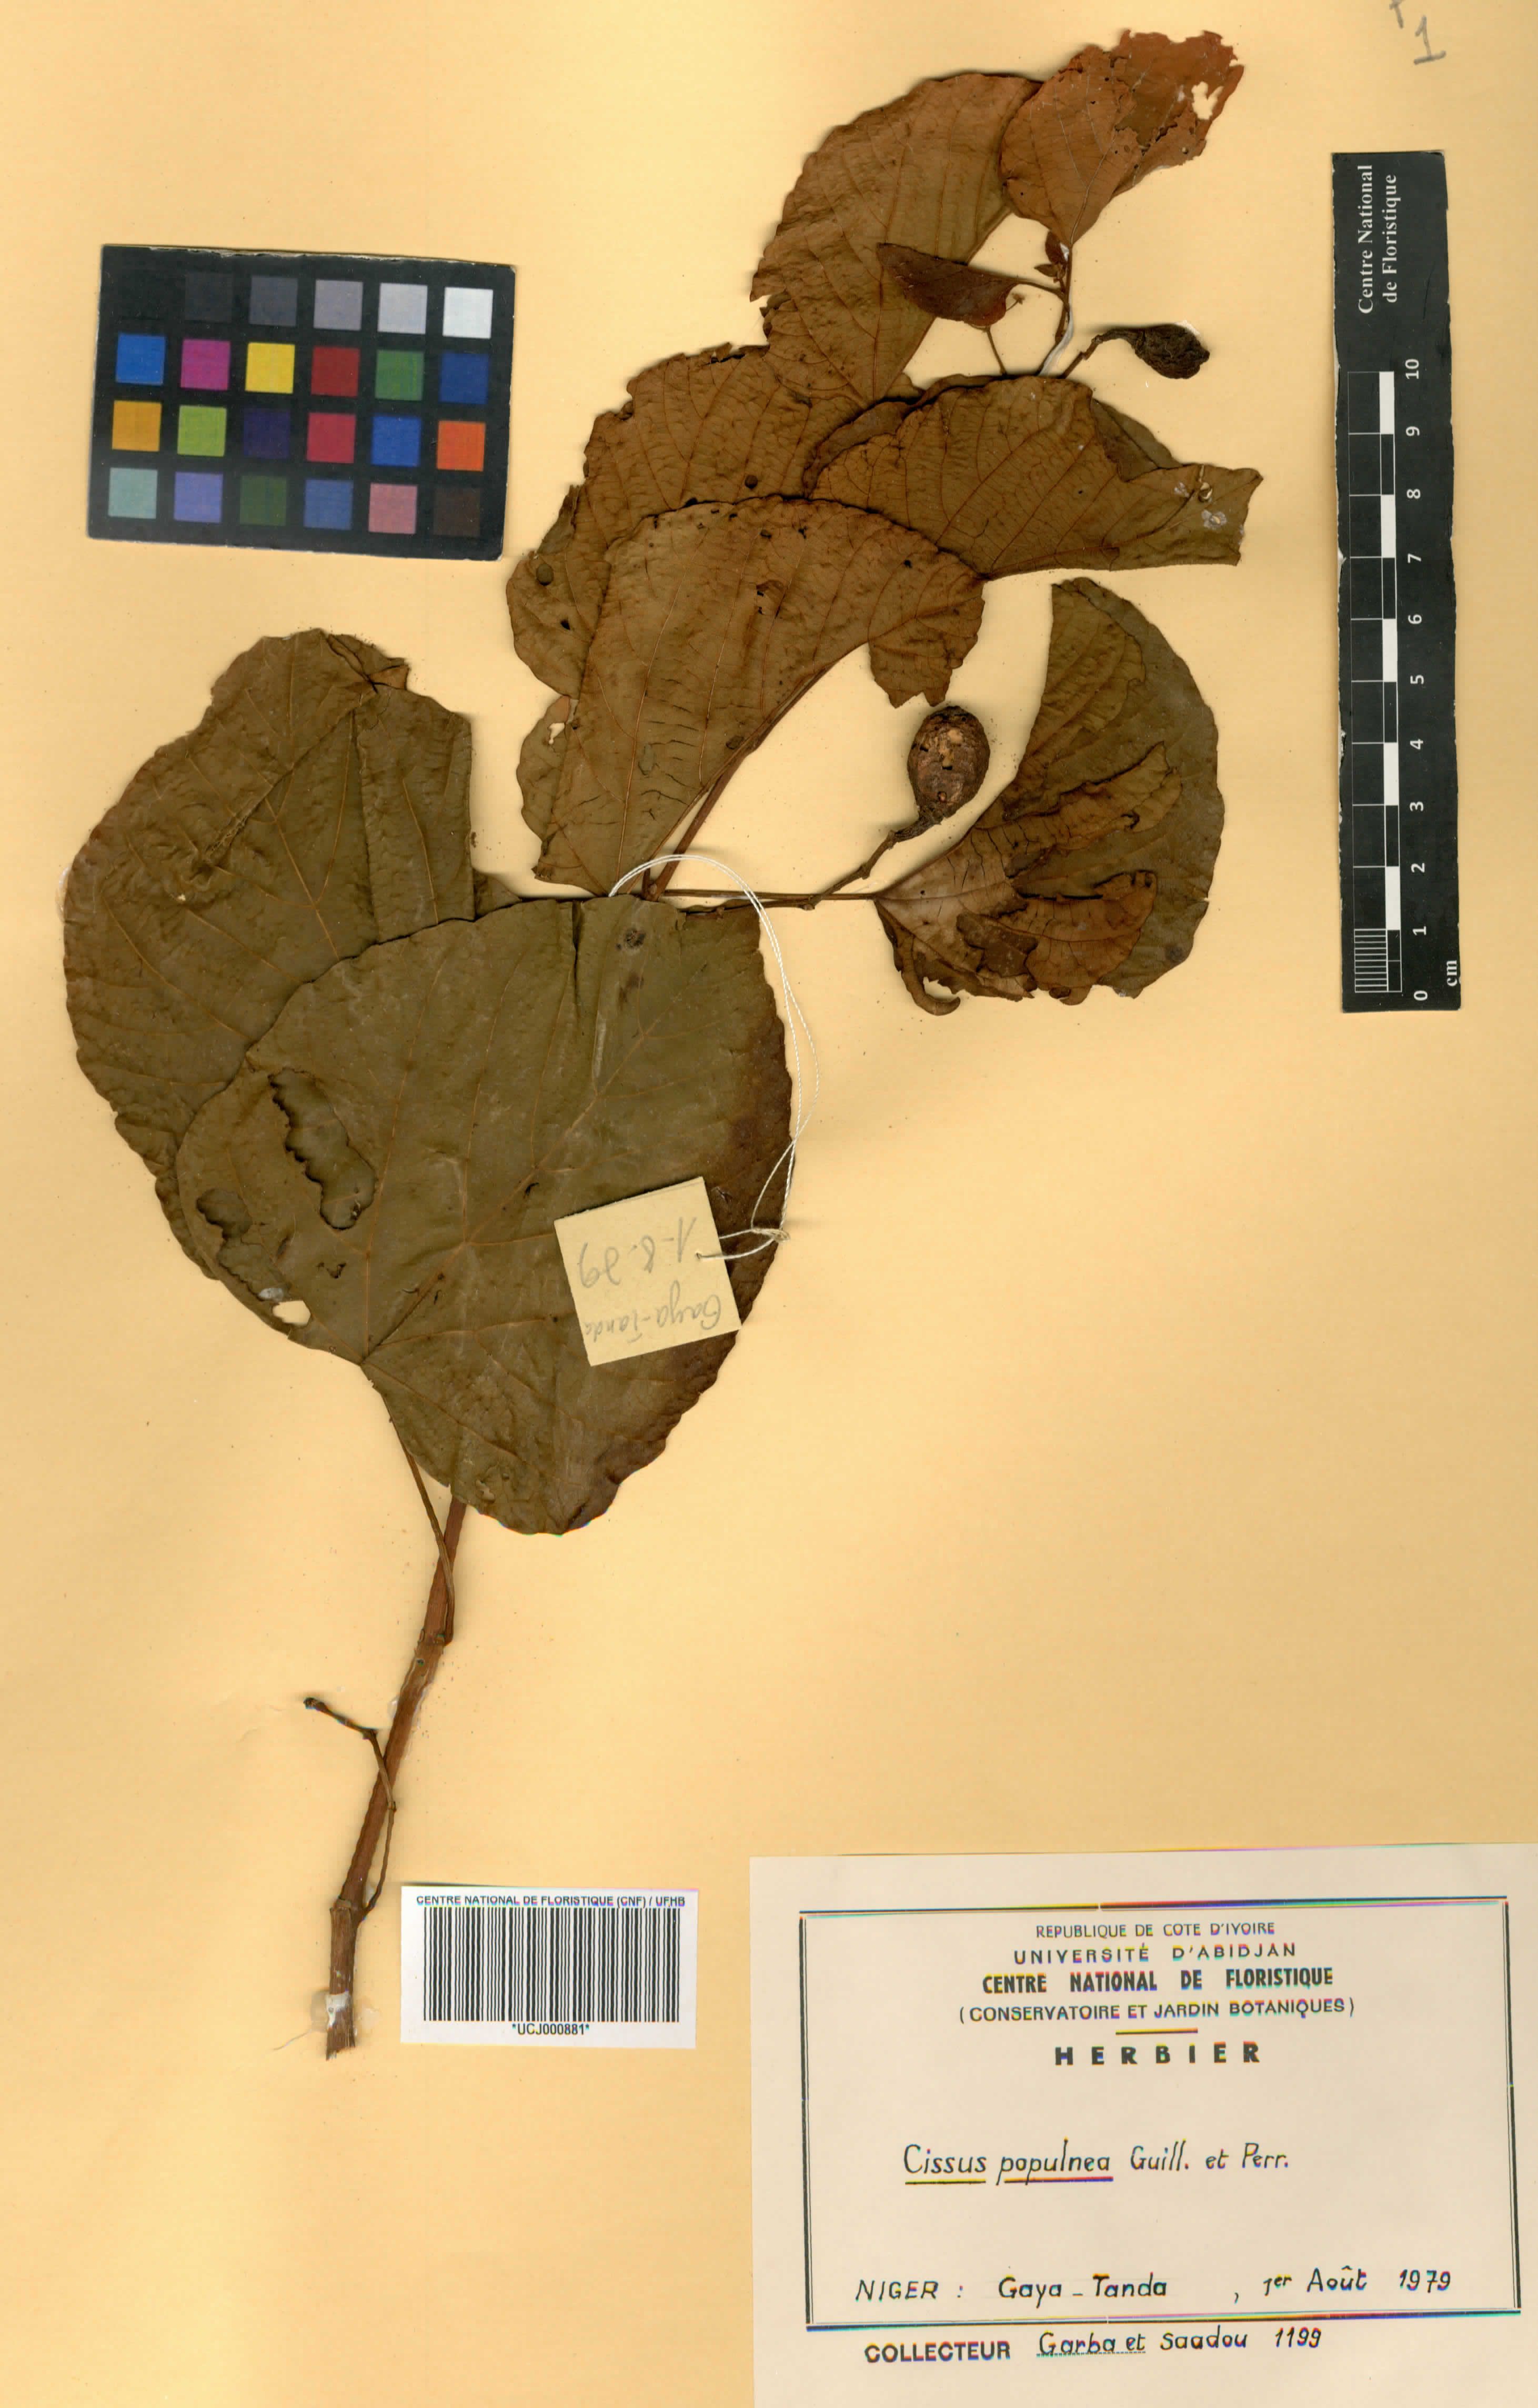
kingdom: Plantae
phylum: Tracheophyta
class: Magnoliopsida
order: Vitales
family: Vitaceae
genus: Cissus
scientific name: Cissus populnea
